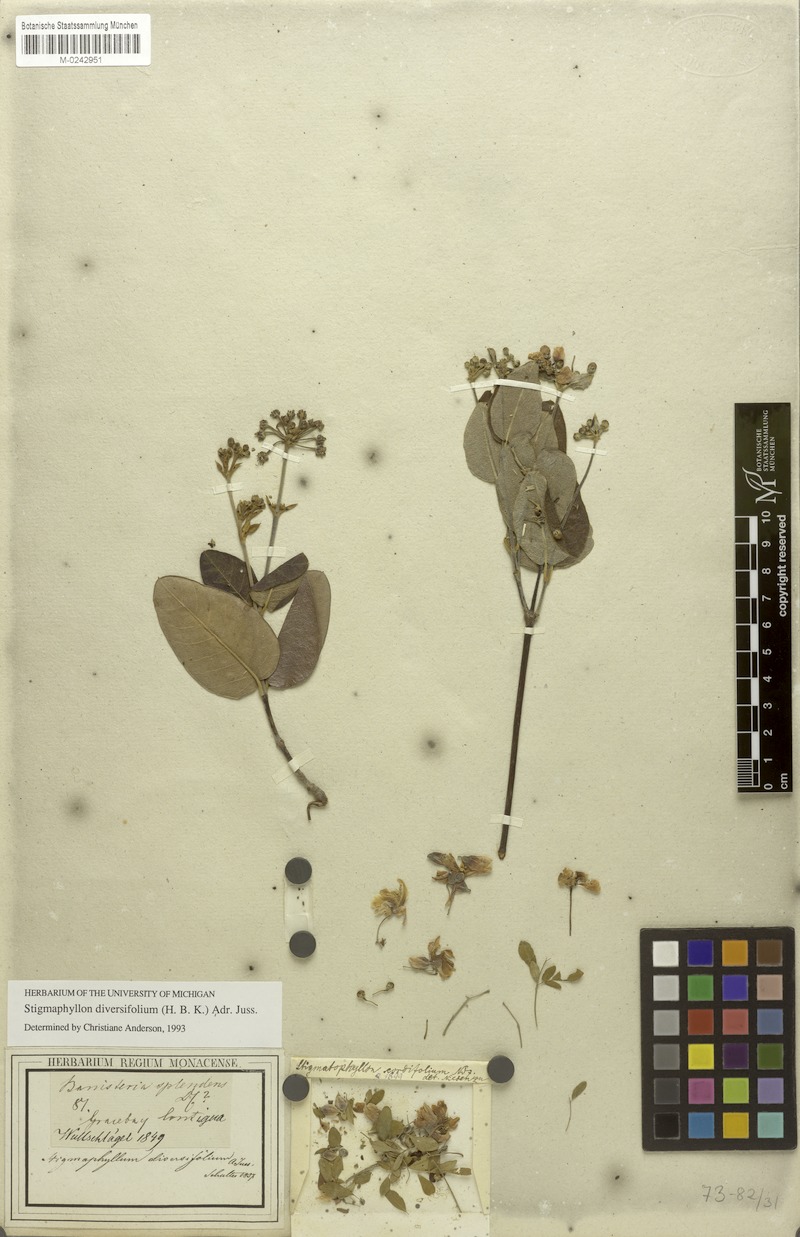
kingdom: Plantae
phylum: Tracheophyta
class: Magnoliopsida
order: Malpighiales
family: Malpighiaceae
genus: Stigmaphyllon
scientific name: Stigmaphyllon diversifolium
